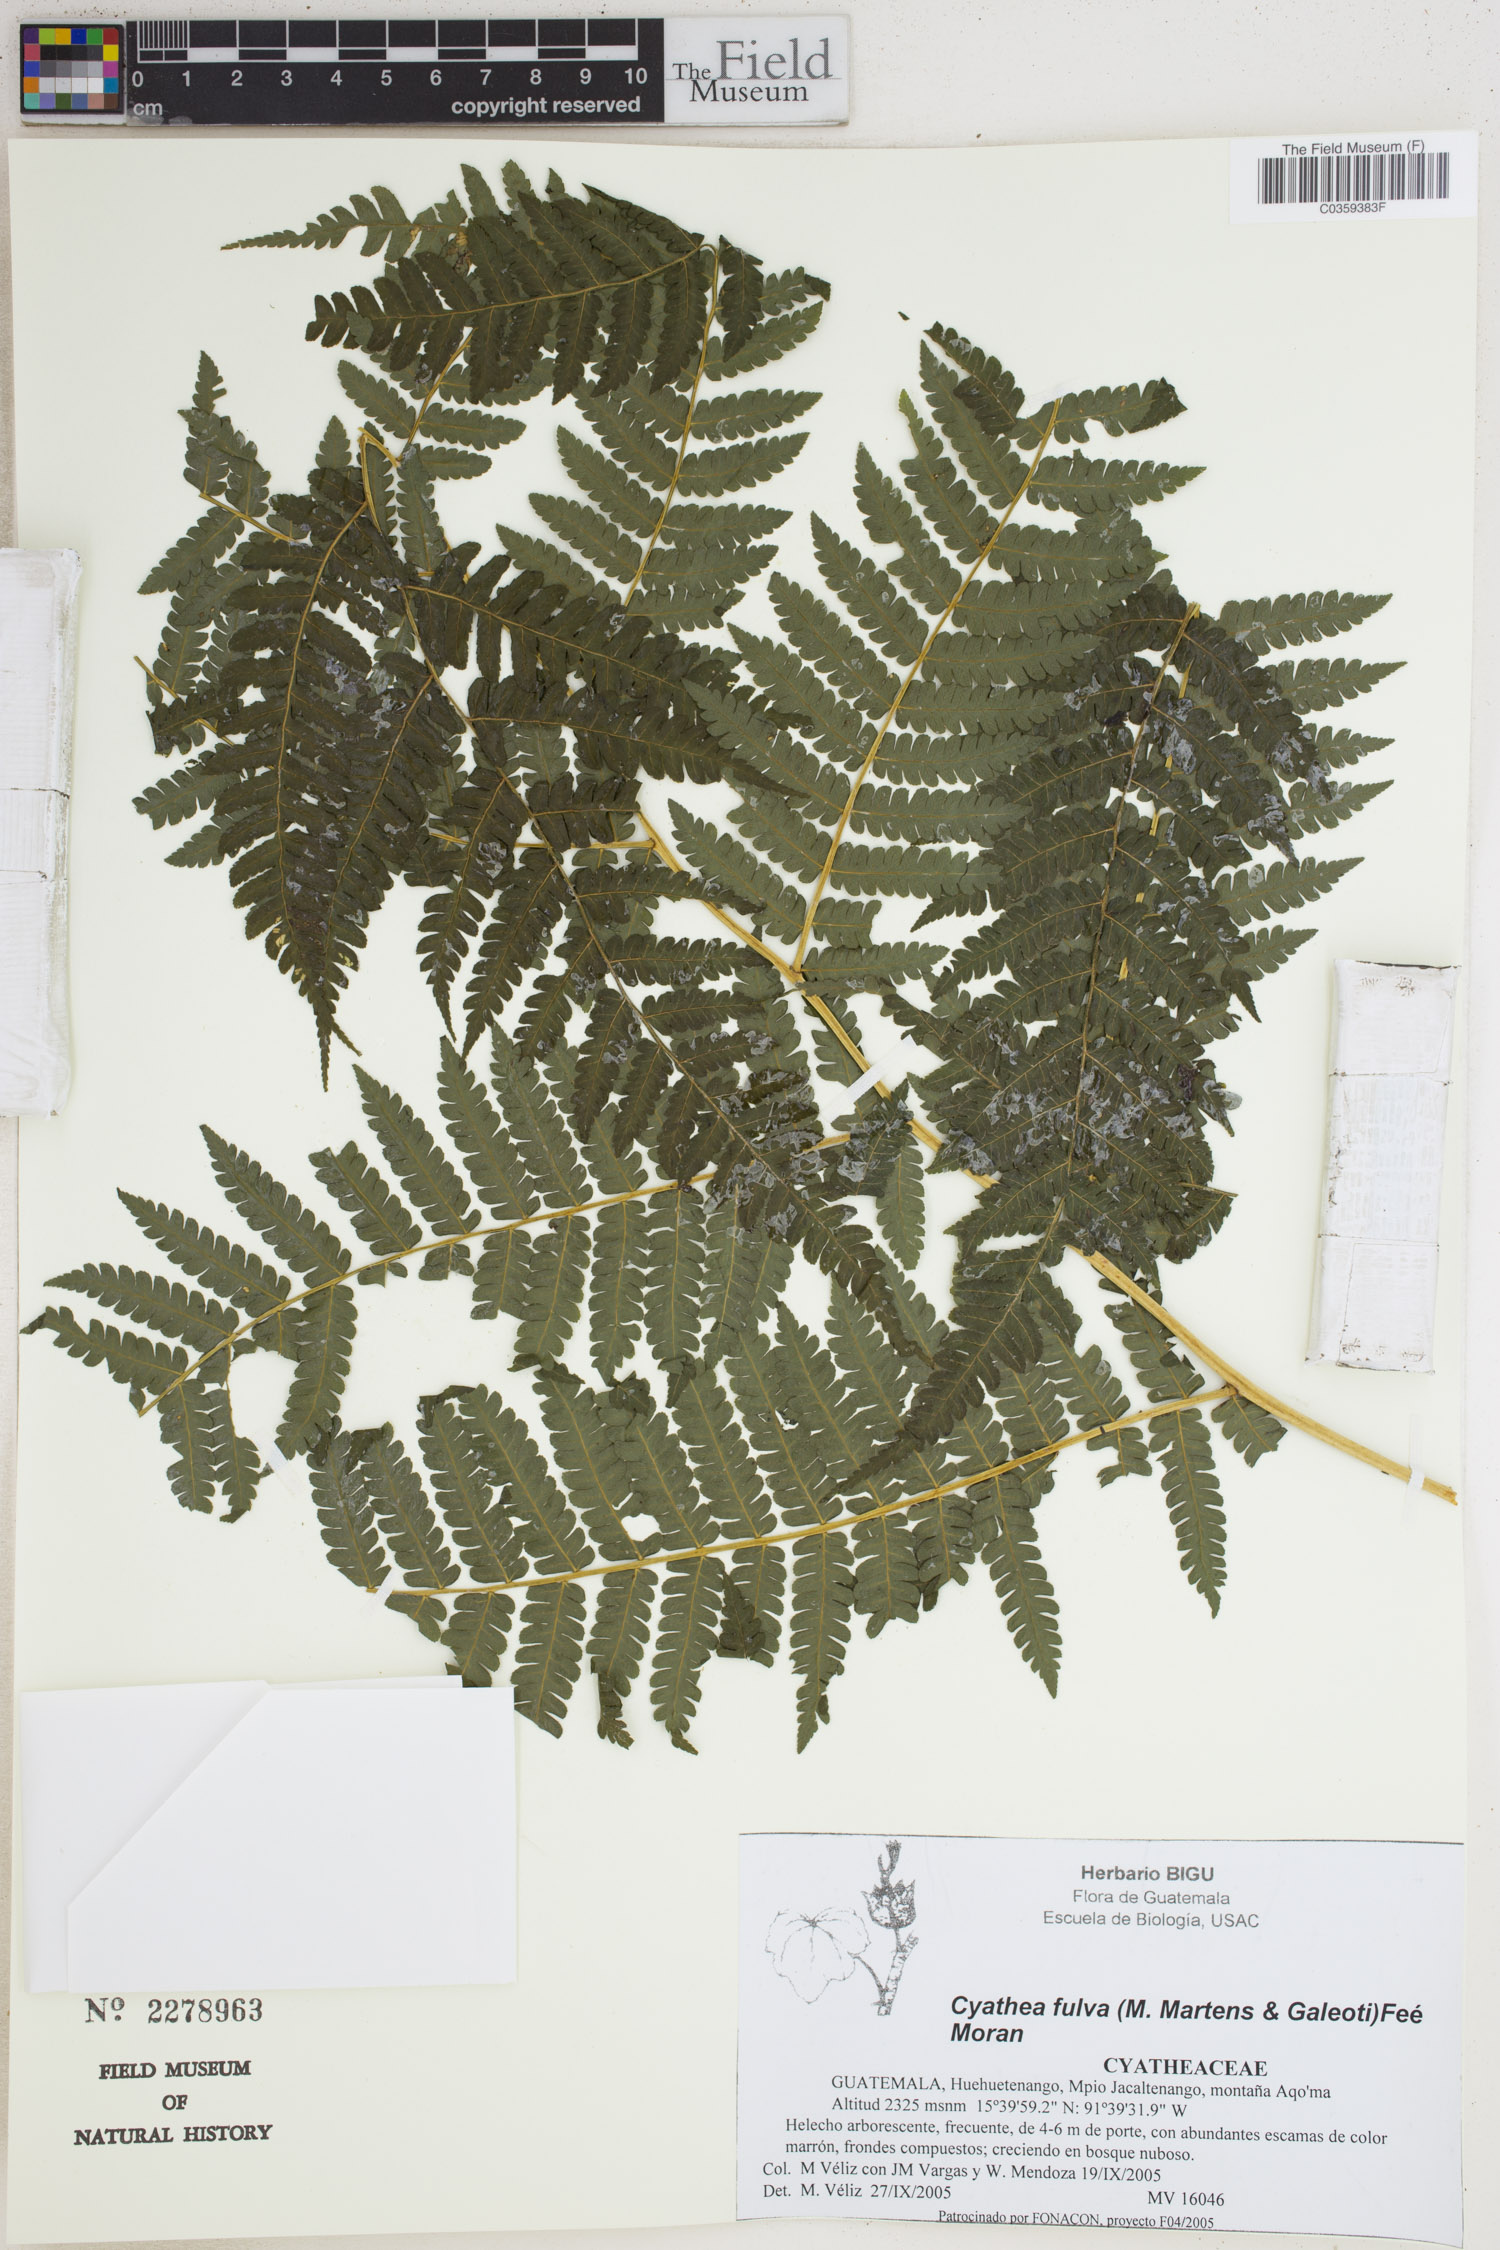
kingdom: Plantae
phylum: Tracheophyta
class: Polypodiopsida
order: Cyatheales
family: Cyatheaceae
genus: Cyathea
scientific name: Cyathea fulva
